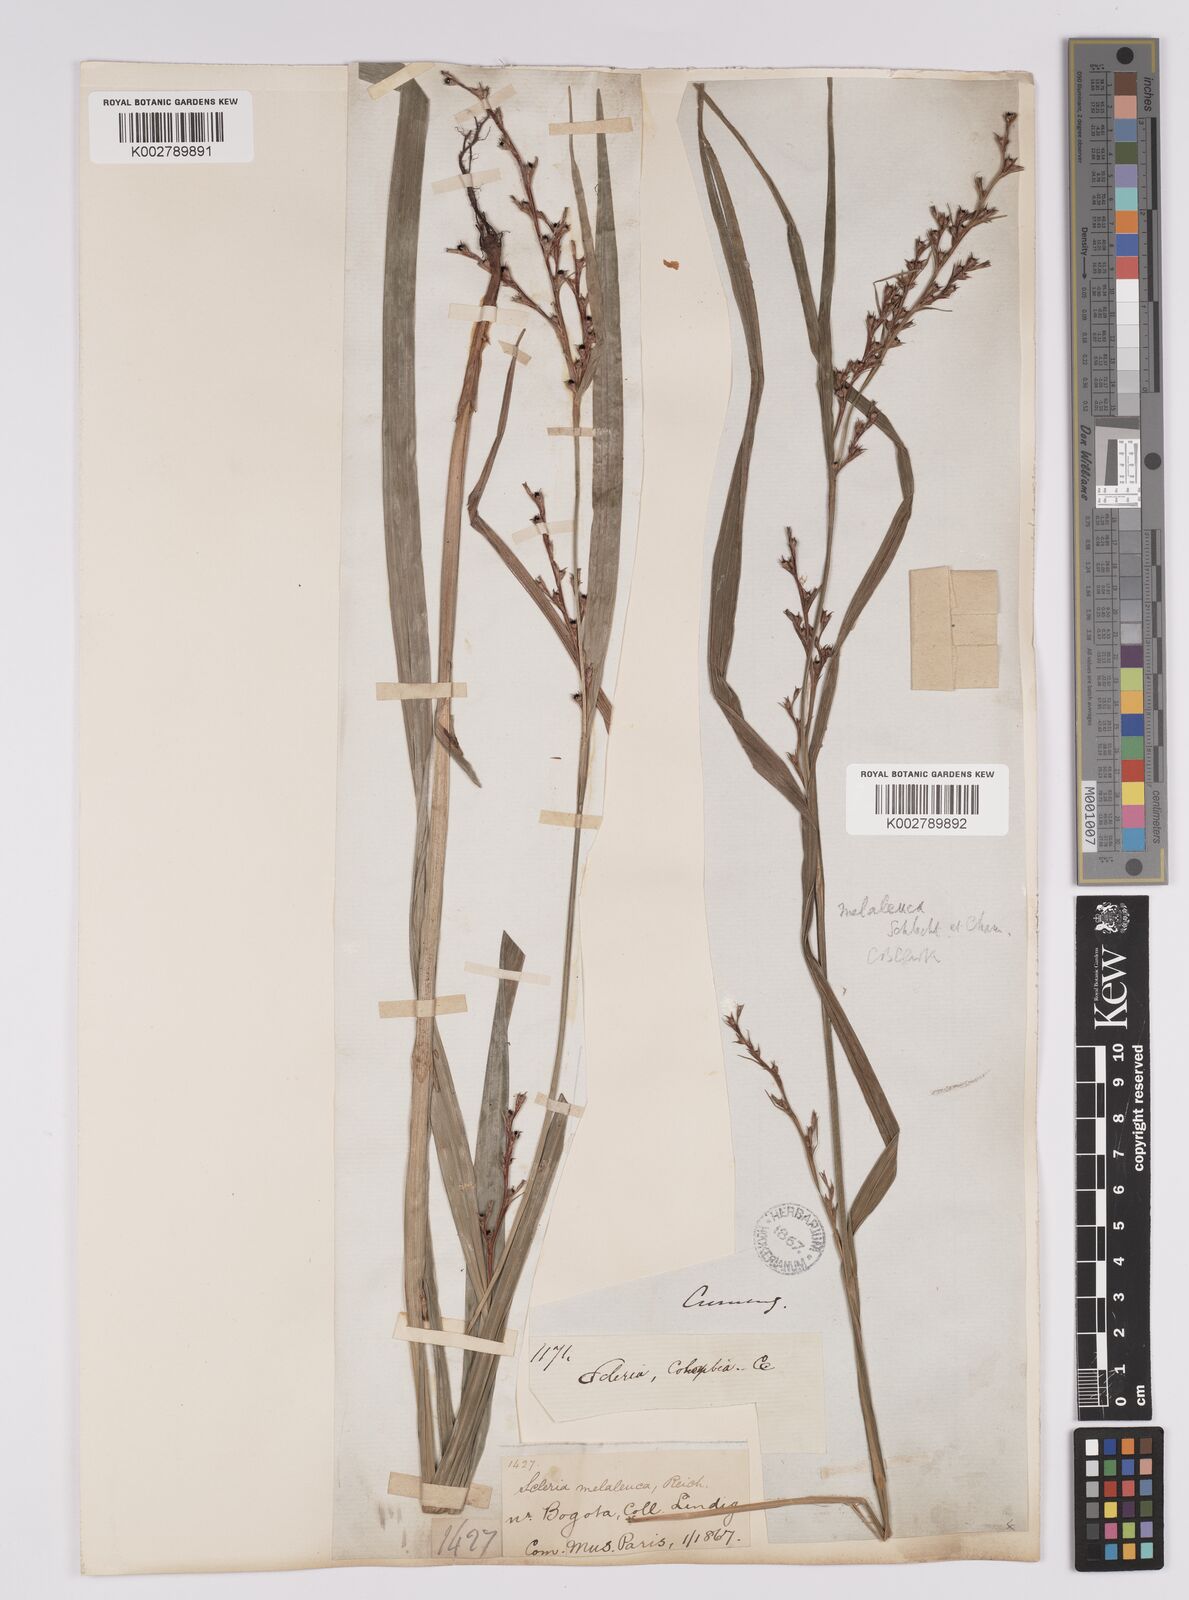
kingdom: Plantae
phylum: Tracheophyta
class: Liliopsida
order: Poales
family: Cyperaceae
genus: Scleria
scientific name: Scleria gaertneri
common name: Cortadera blanca
